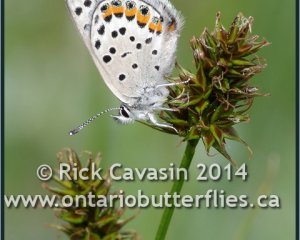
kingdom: Animalia
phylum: Arthropoda
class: Insecta
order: Lepidoptera
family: Lycaenidae
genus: Plebejus
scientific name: Plebejus lupini
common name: Lupine Blue
